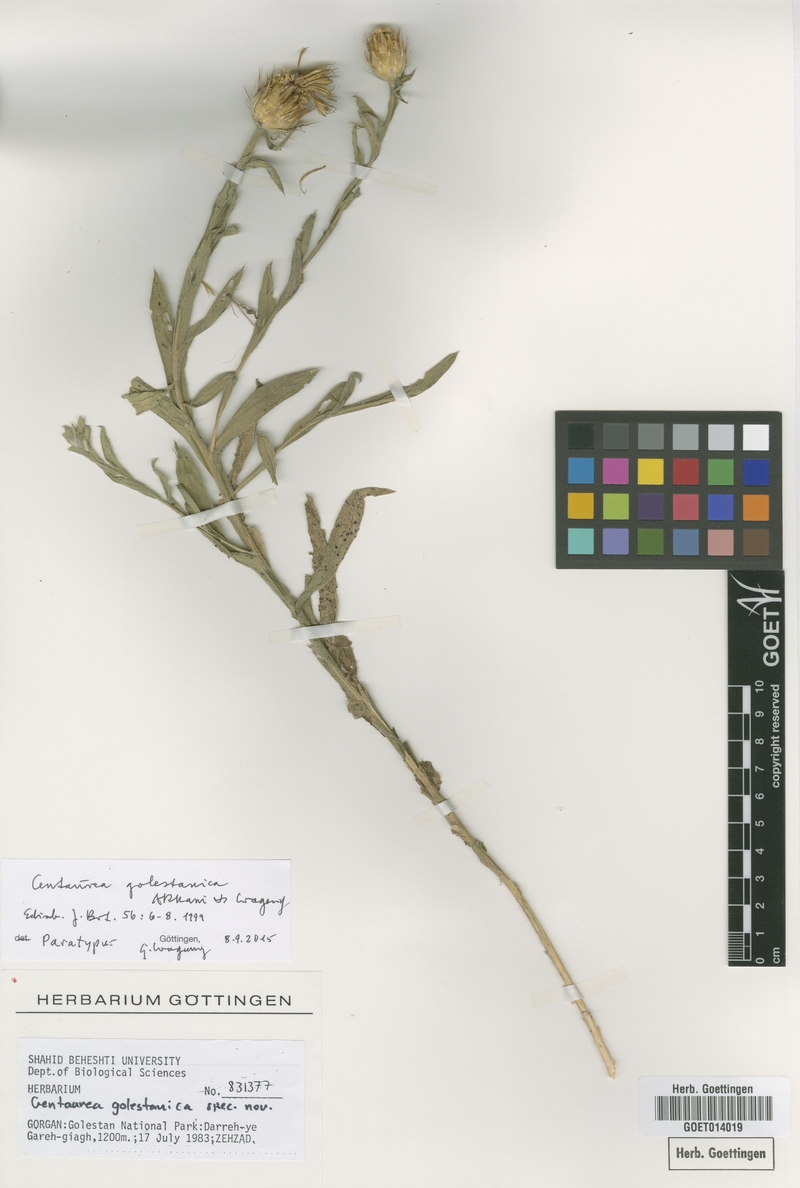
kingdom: Plantae
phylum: Tracheophyta
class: Magnoliopsida
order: Asterales
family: Asteraceae
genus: Centaurea
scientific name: Centaurea golestanica
